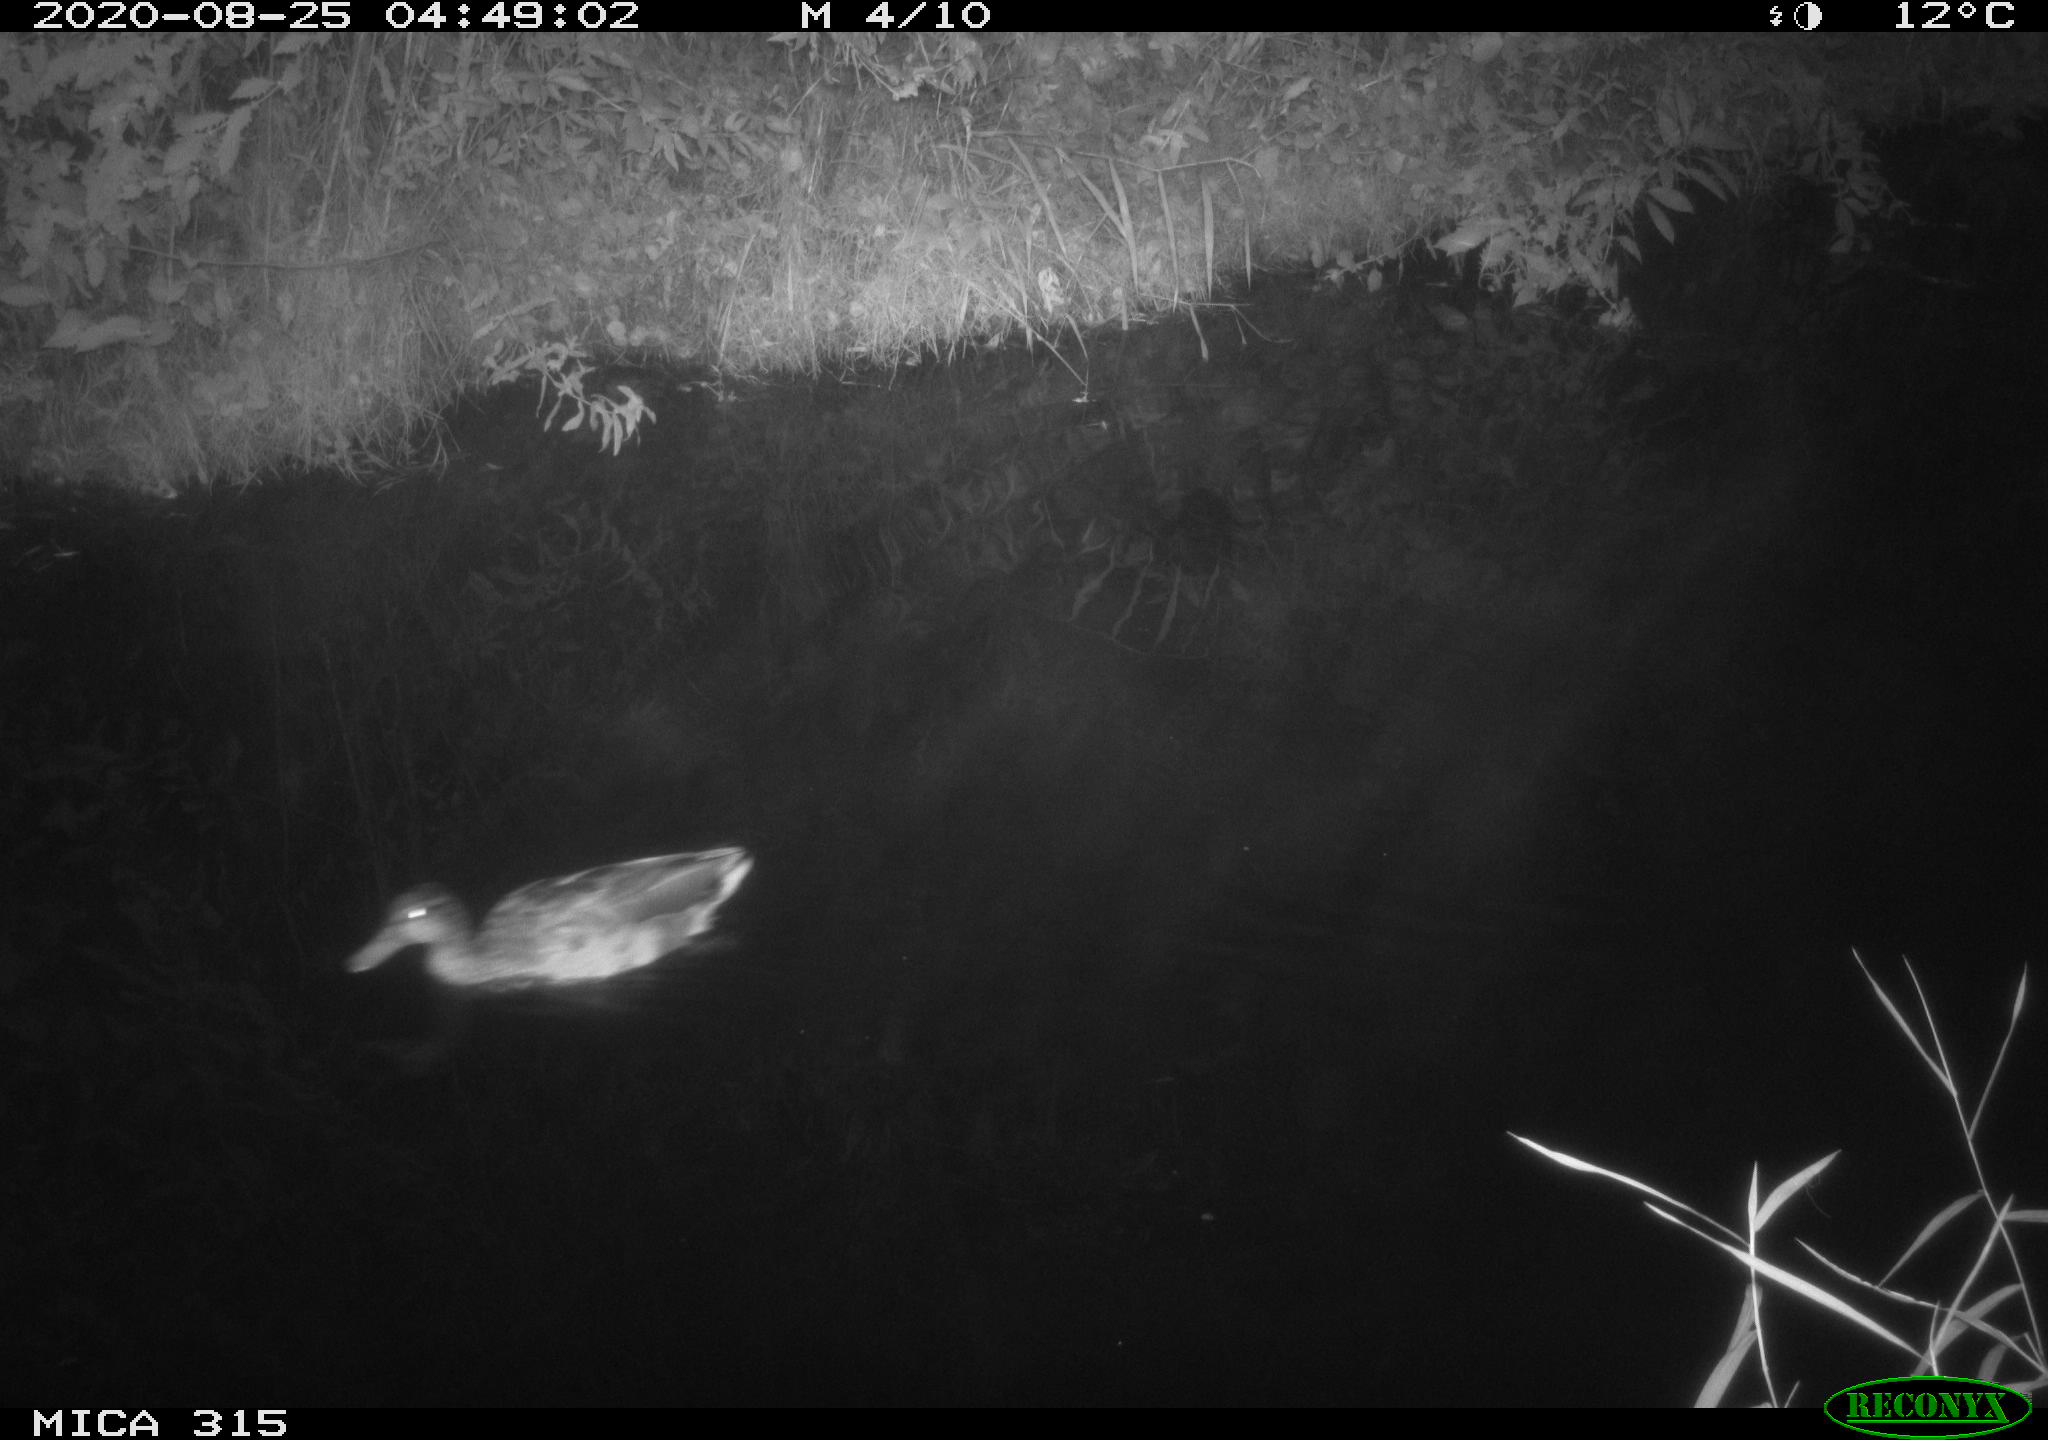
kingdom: Animalia
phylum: Chordata
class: Aves
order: Anseriformes
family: Anatidae
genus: Anas
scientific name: Anas platyrhynchos
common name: Mallard
